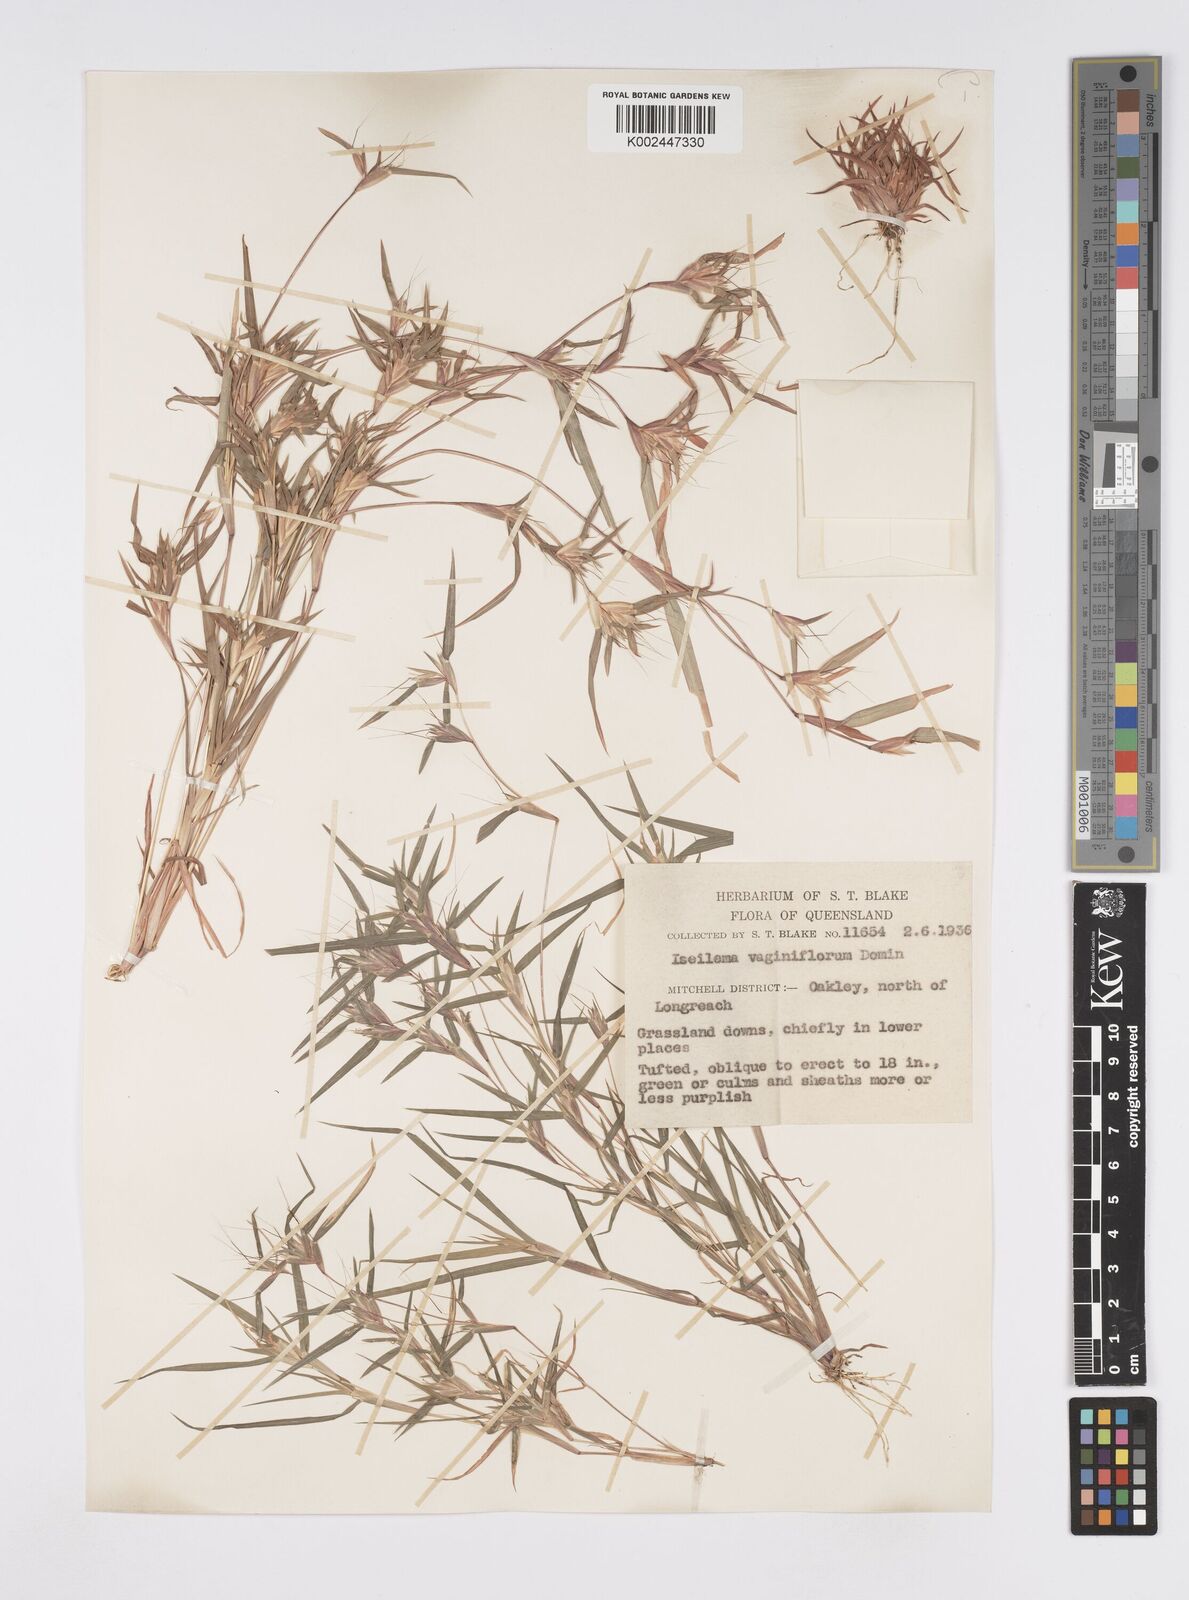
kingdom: Plantae
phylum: Tracheophyta
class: Liliopsida
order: Poales
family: Poaceae
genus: Iseilema
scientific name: Iseilema vaginiflorum
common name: Red flinders grass
